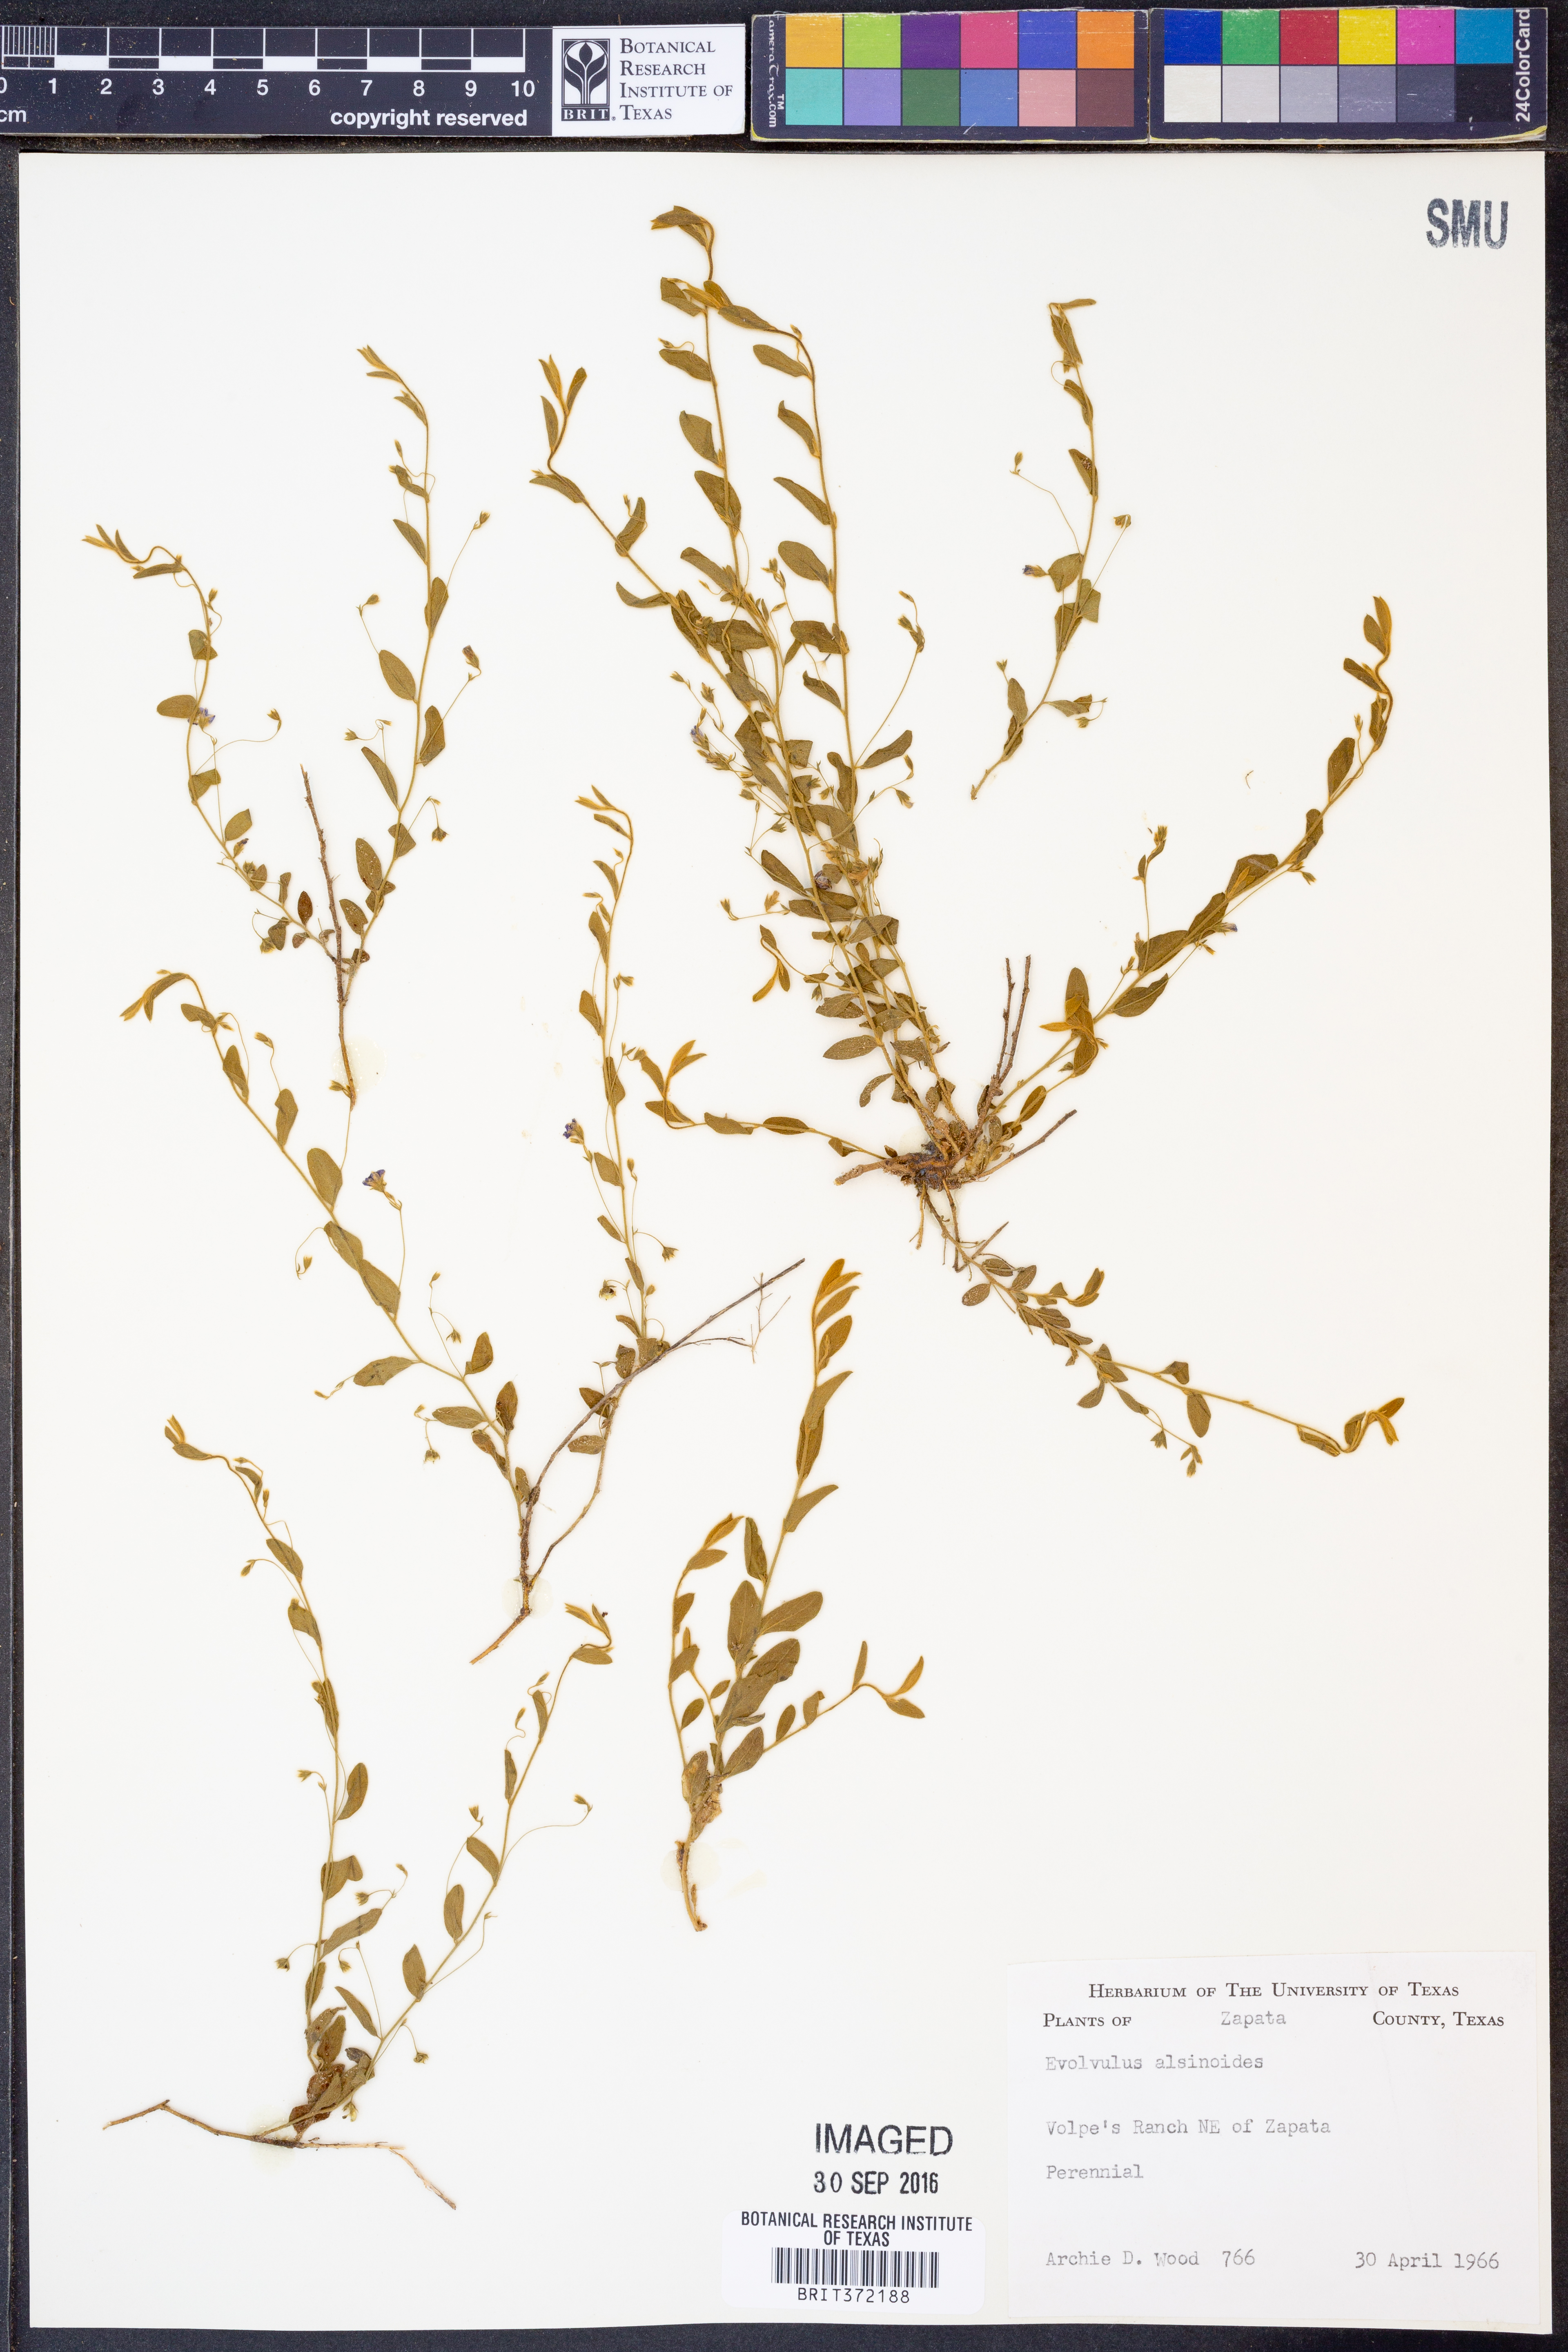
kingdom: Plantae
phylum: Tracheophyta
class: Magnoliopsida
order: Solanales
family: Convolvulaceae
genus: Evolvulus
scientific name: Evolvulus alsinoides
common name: Slender dwarf morning-glory
